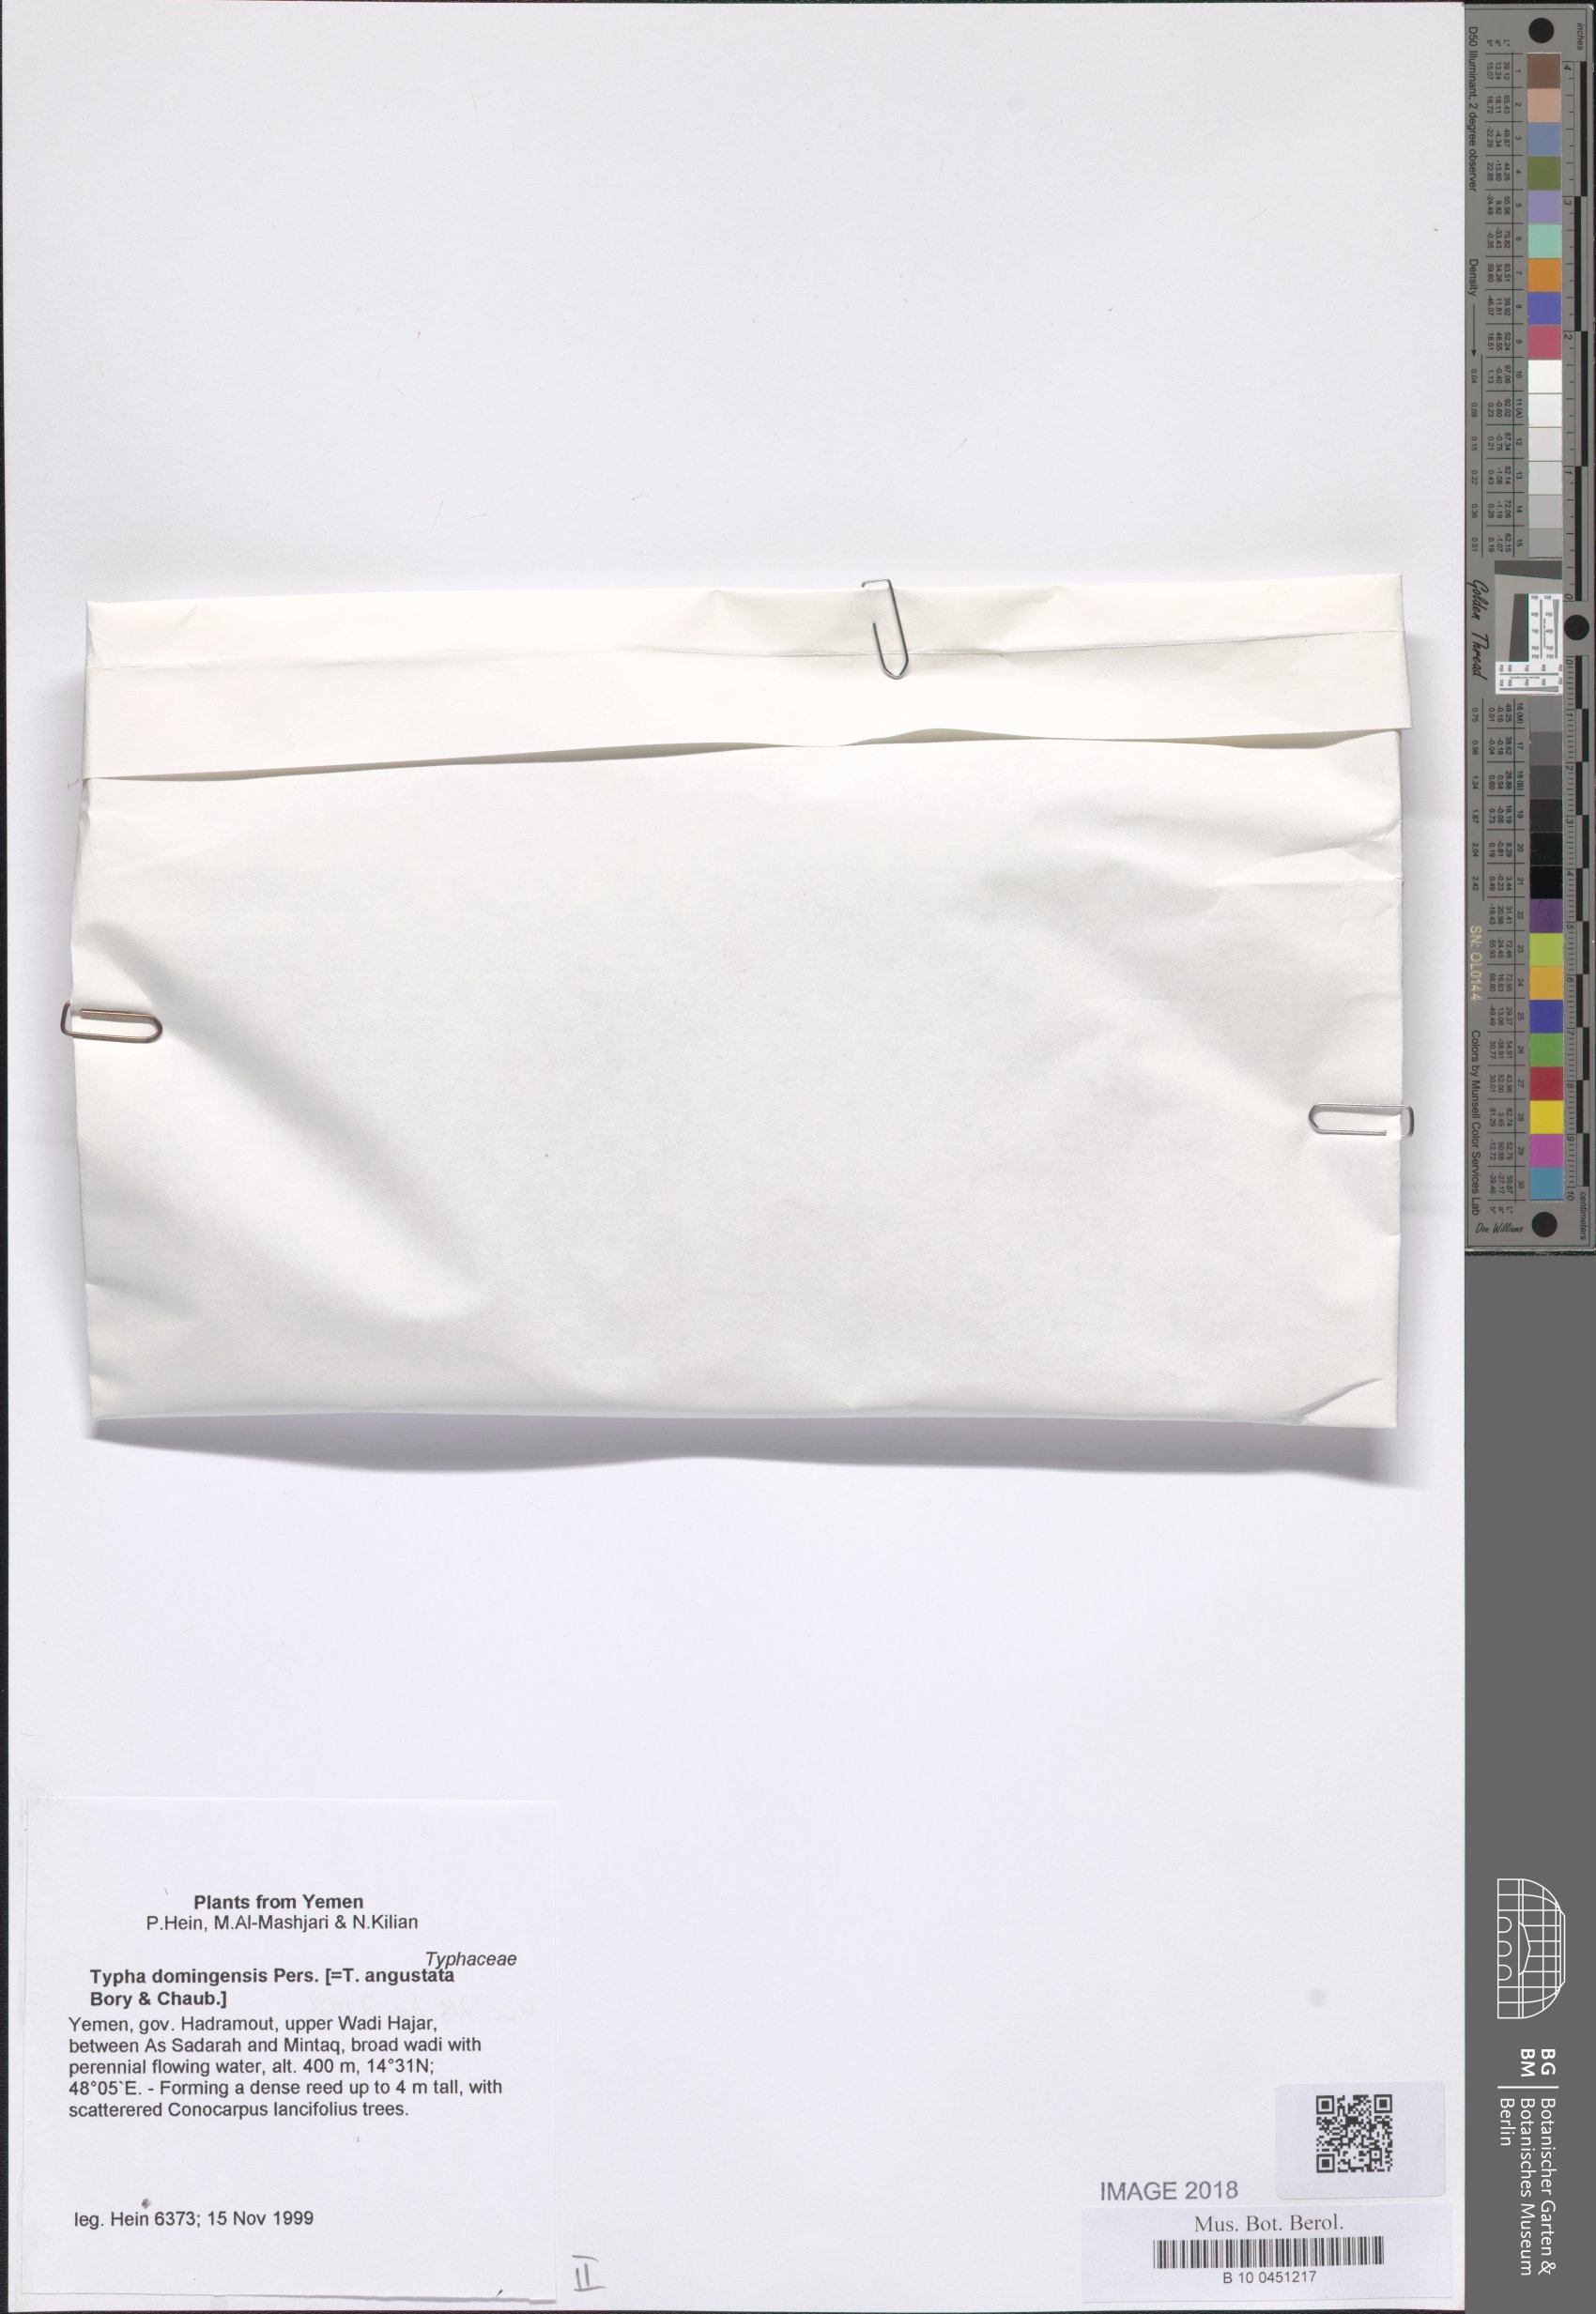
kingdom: Plantae
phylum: Tracheophyta
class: Liliopsida
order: Poales
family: Typhaceae
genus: Typha
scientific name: Typha domingensis
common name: Southern cattail
